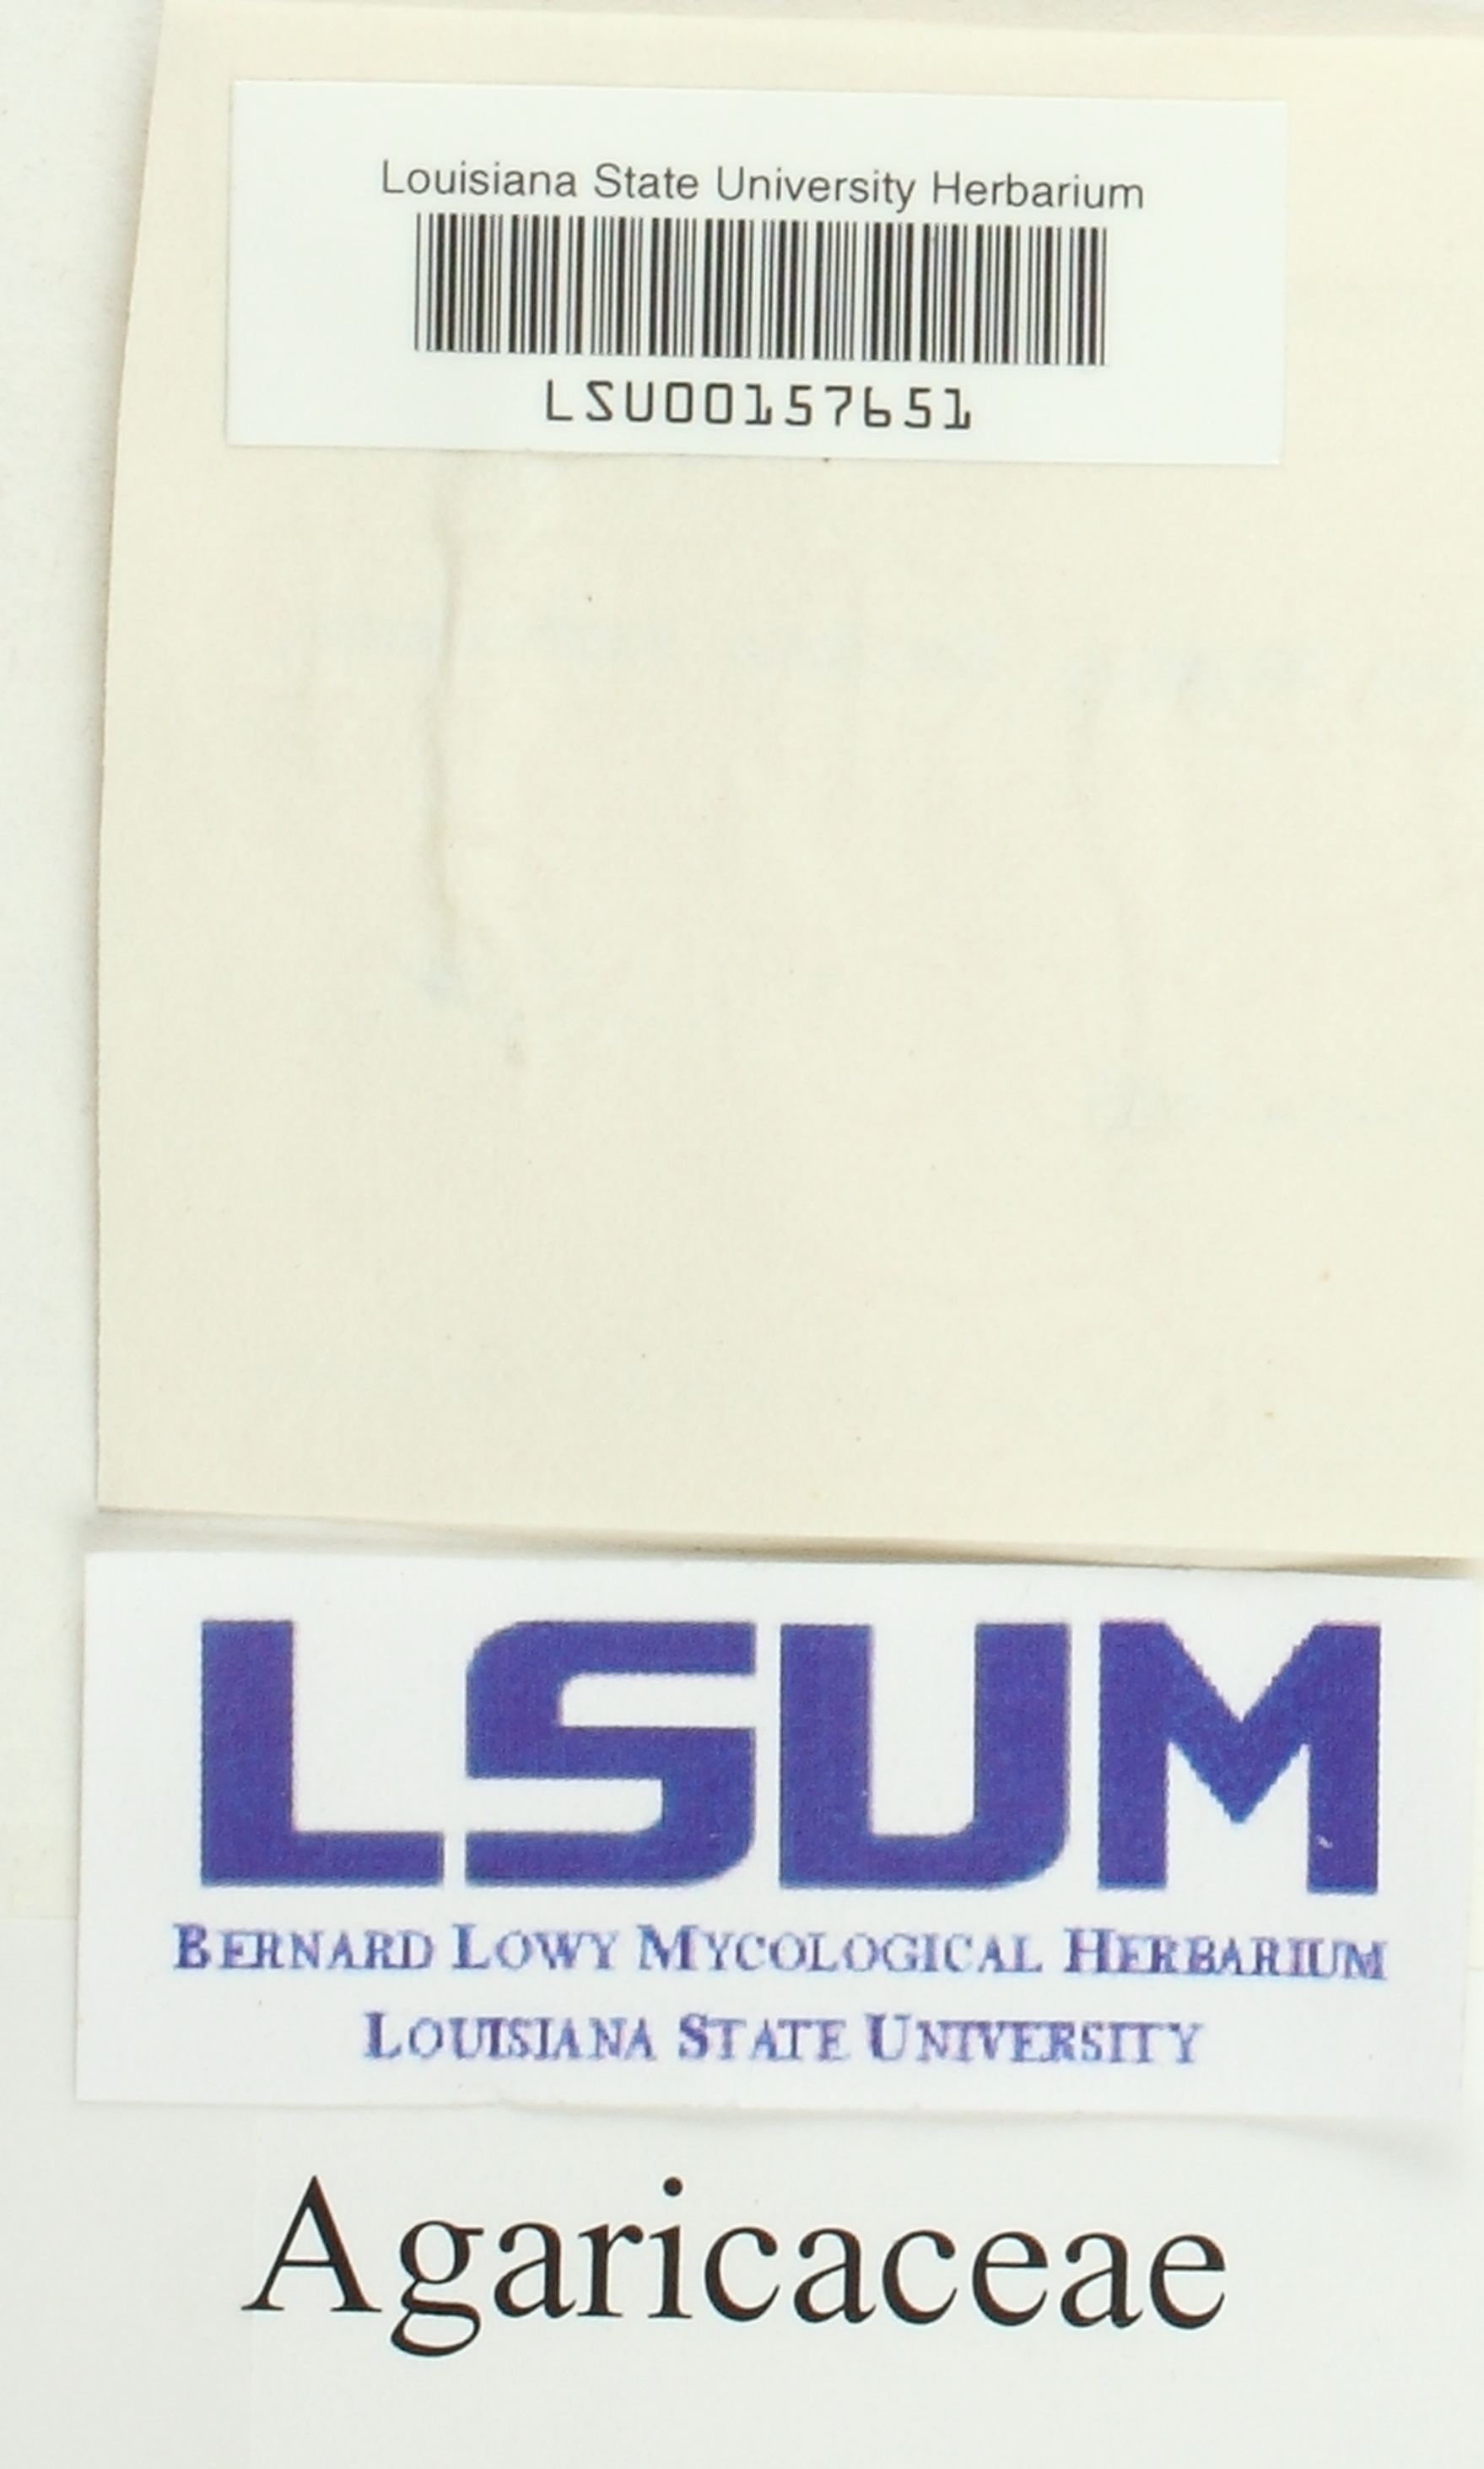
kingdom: Fungi
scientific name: Fungi
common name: Fungi
